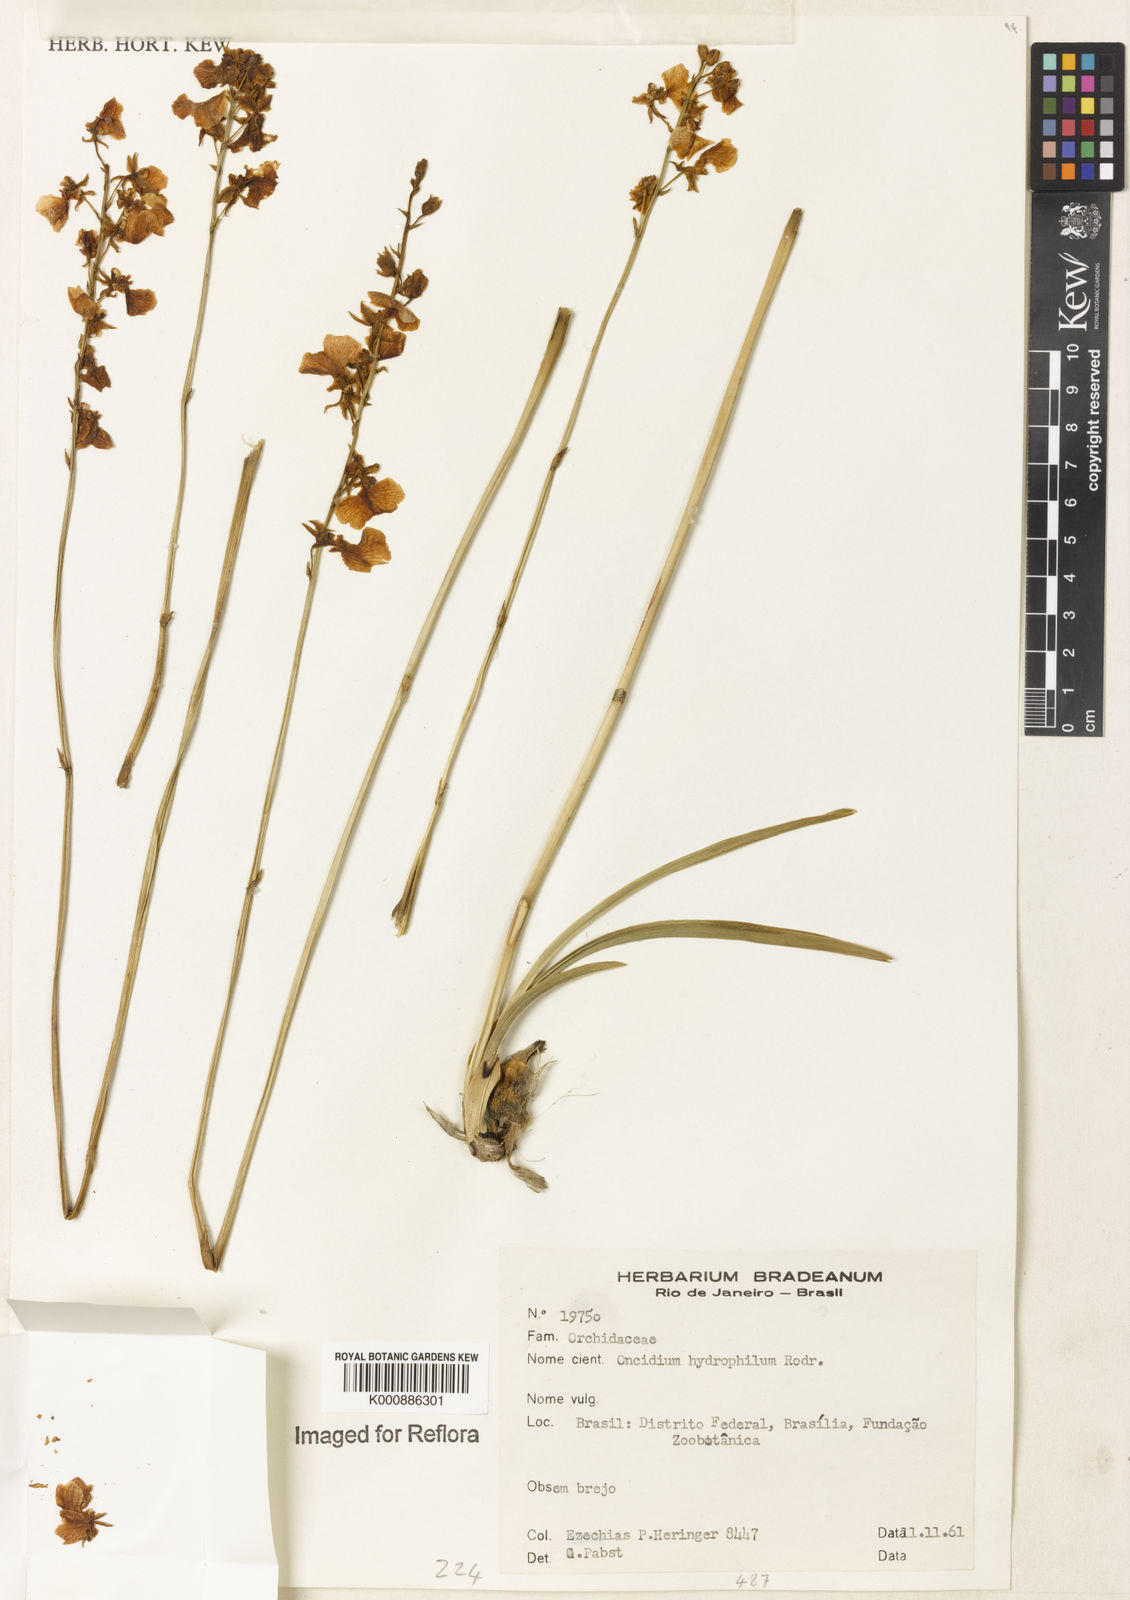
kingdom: Plantae
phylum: Tracheophyta
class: Liliopsida
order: Asparagales
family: Orchidaceae
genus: Gomesa
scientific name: Gomesa hydrophila
